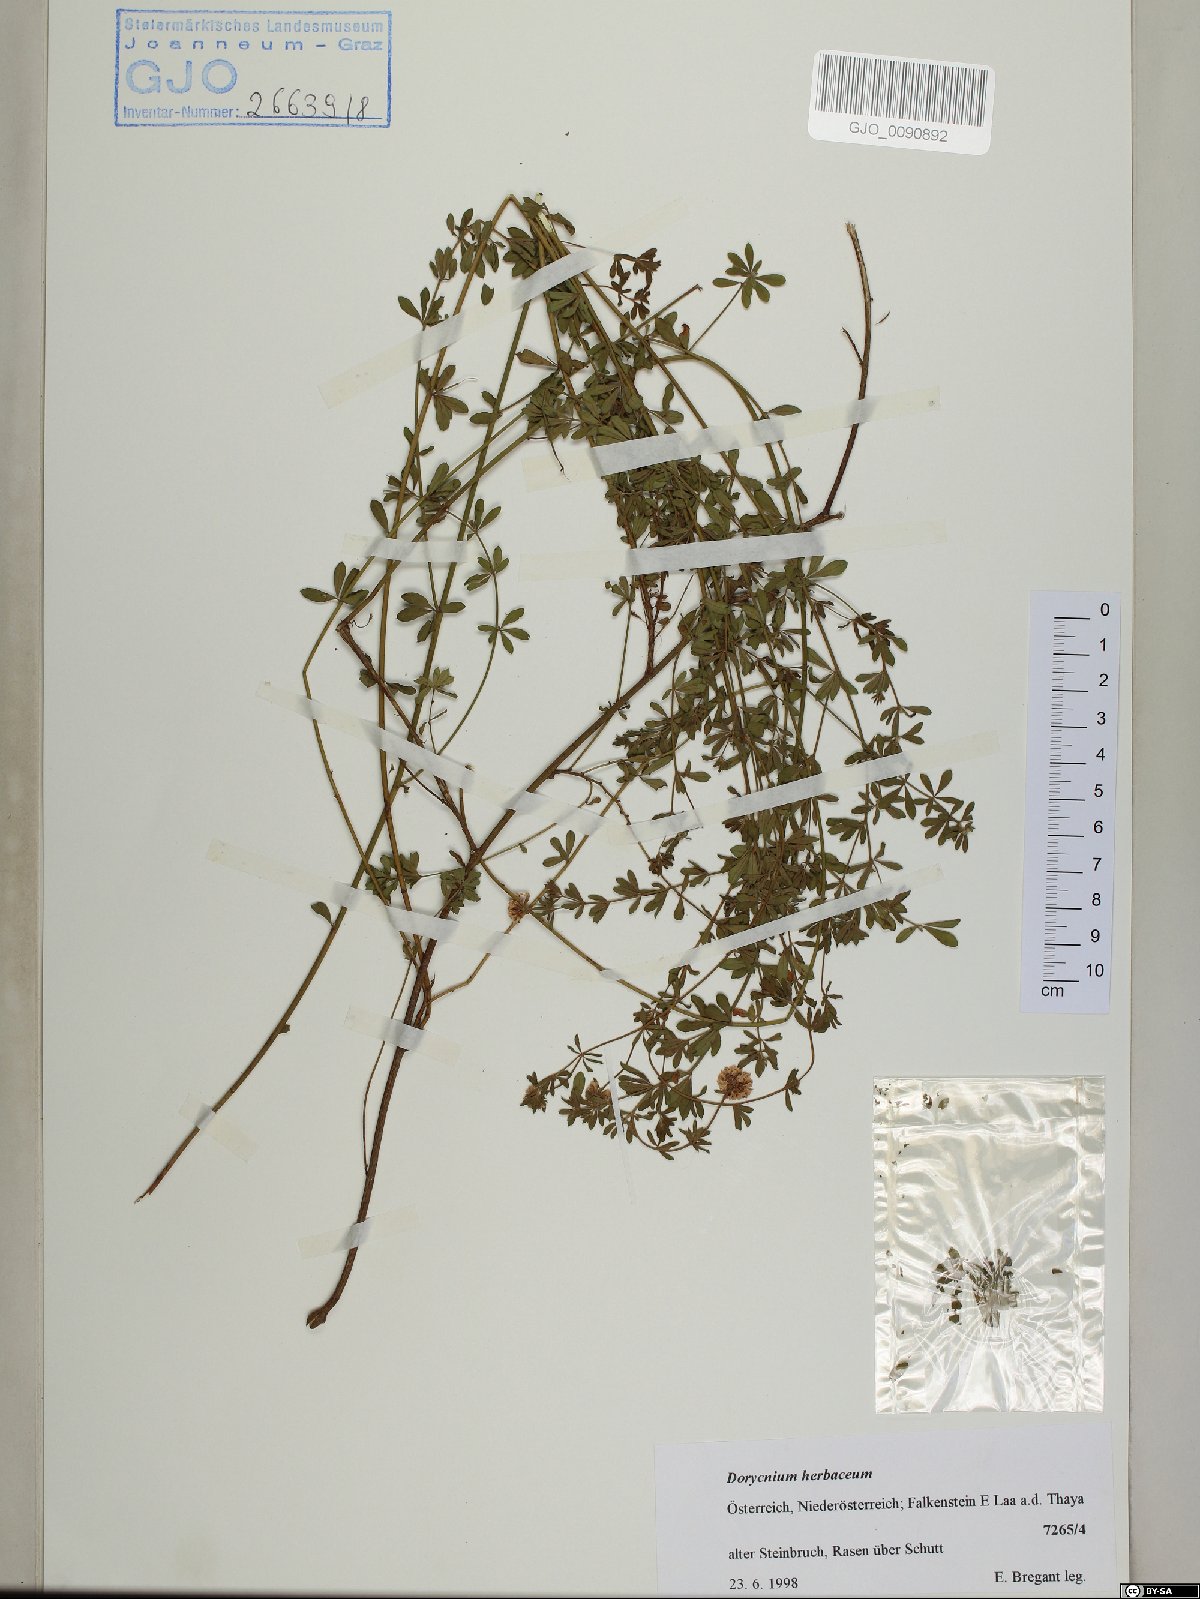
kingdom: Plantae
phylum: Tracheophyta
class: Magnoliopsida
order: Fabales
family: Fabaceae
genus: Lotus
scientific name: Lotus herbaceus
